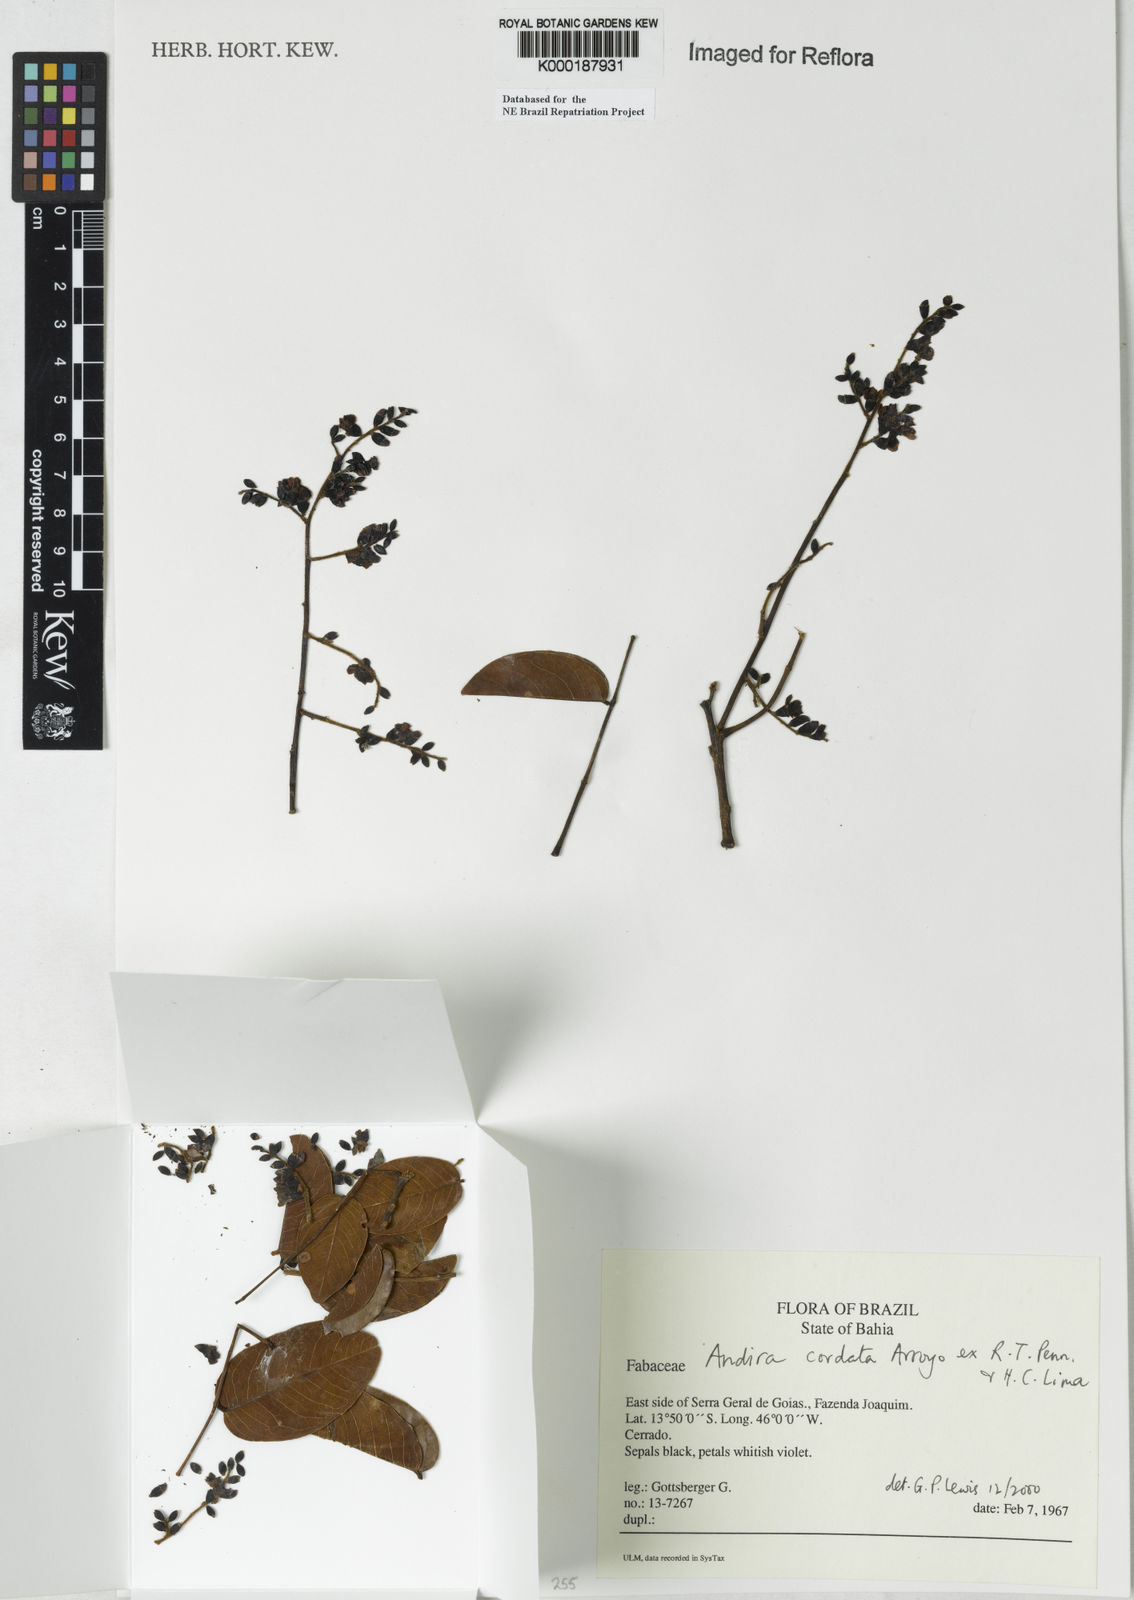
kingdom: Plantae
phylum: Tracheophyta
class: Magnoliopsida
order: Fabales
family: Fabaceae
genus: Andira
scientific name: Andira cordata
